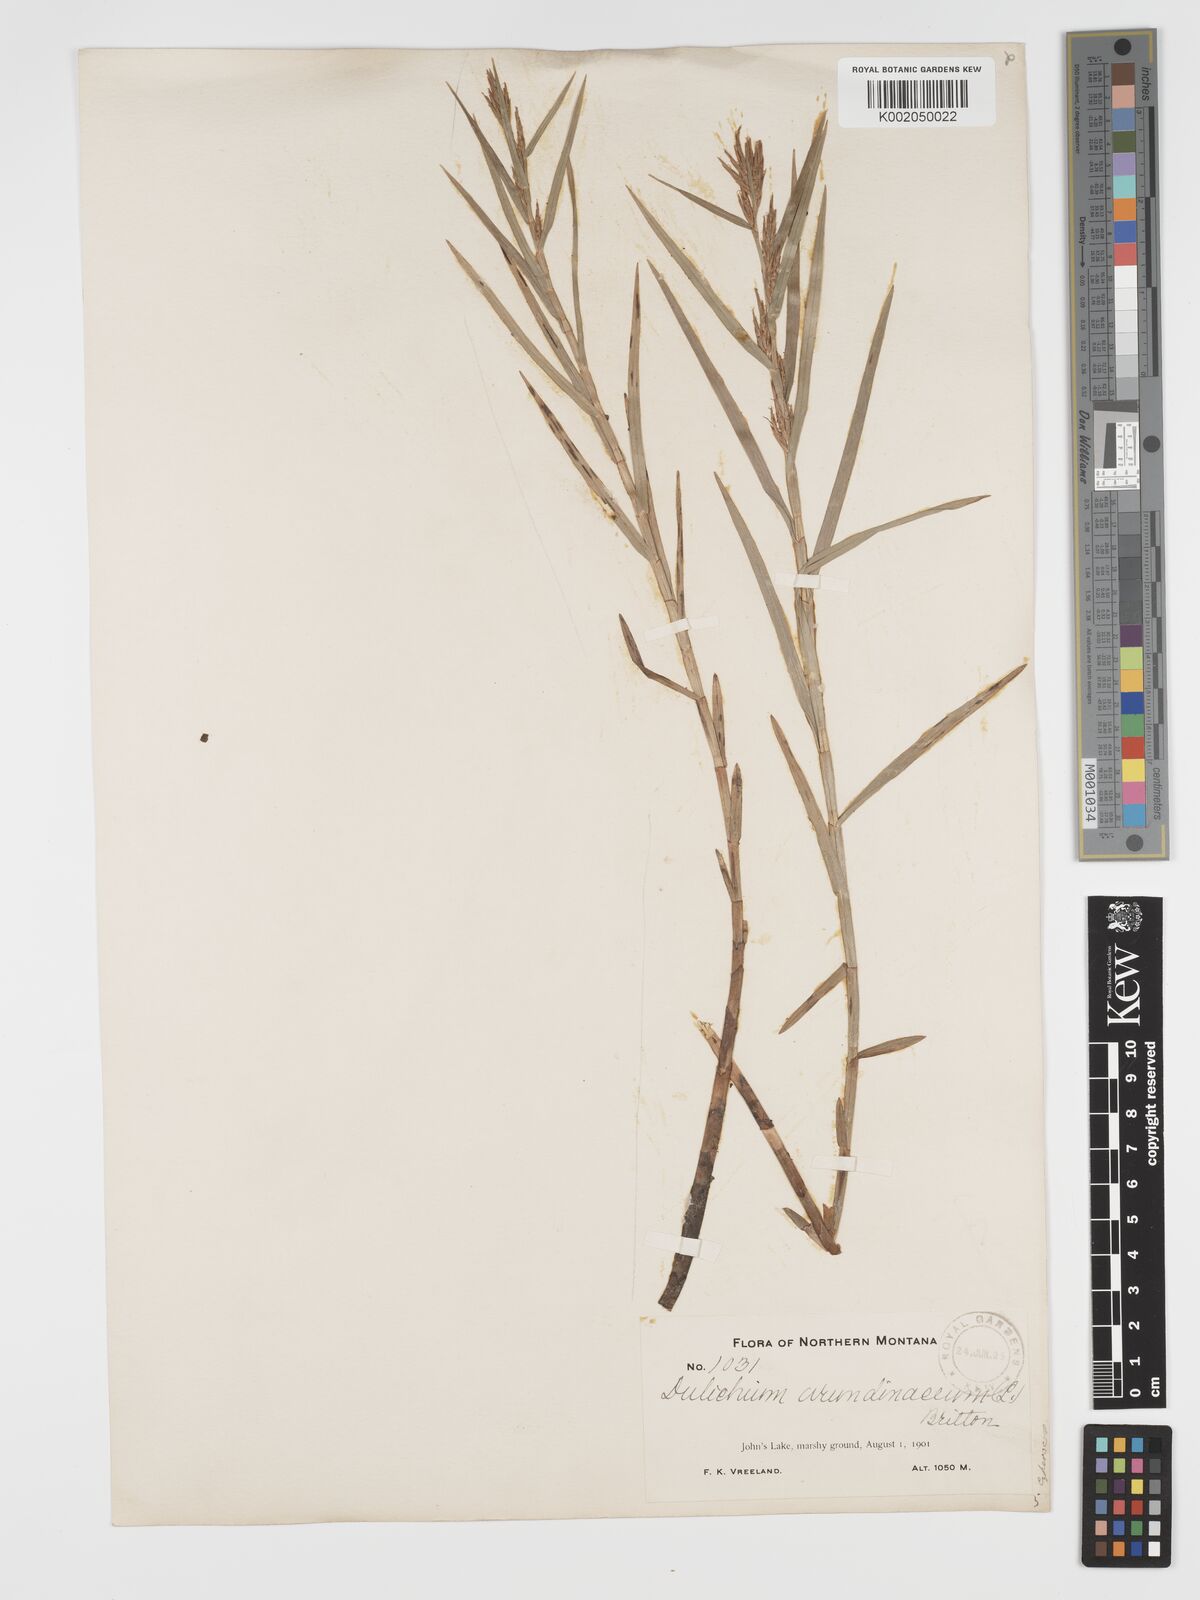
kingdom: Plantae
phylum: Tracheophyta
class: Liliopsida
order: Poales
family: Cyperaceae
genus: Dulichium
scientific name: Dulichium arundinaceum
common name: Three-way sedge
